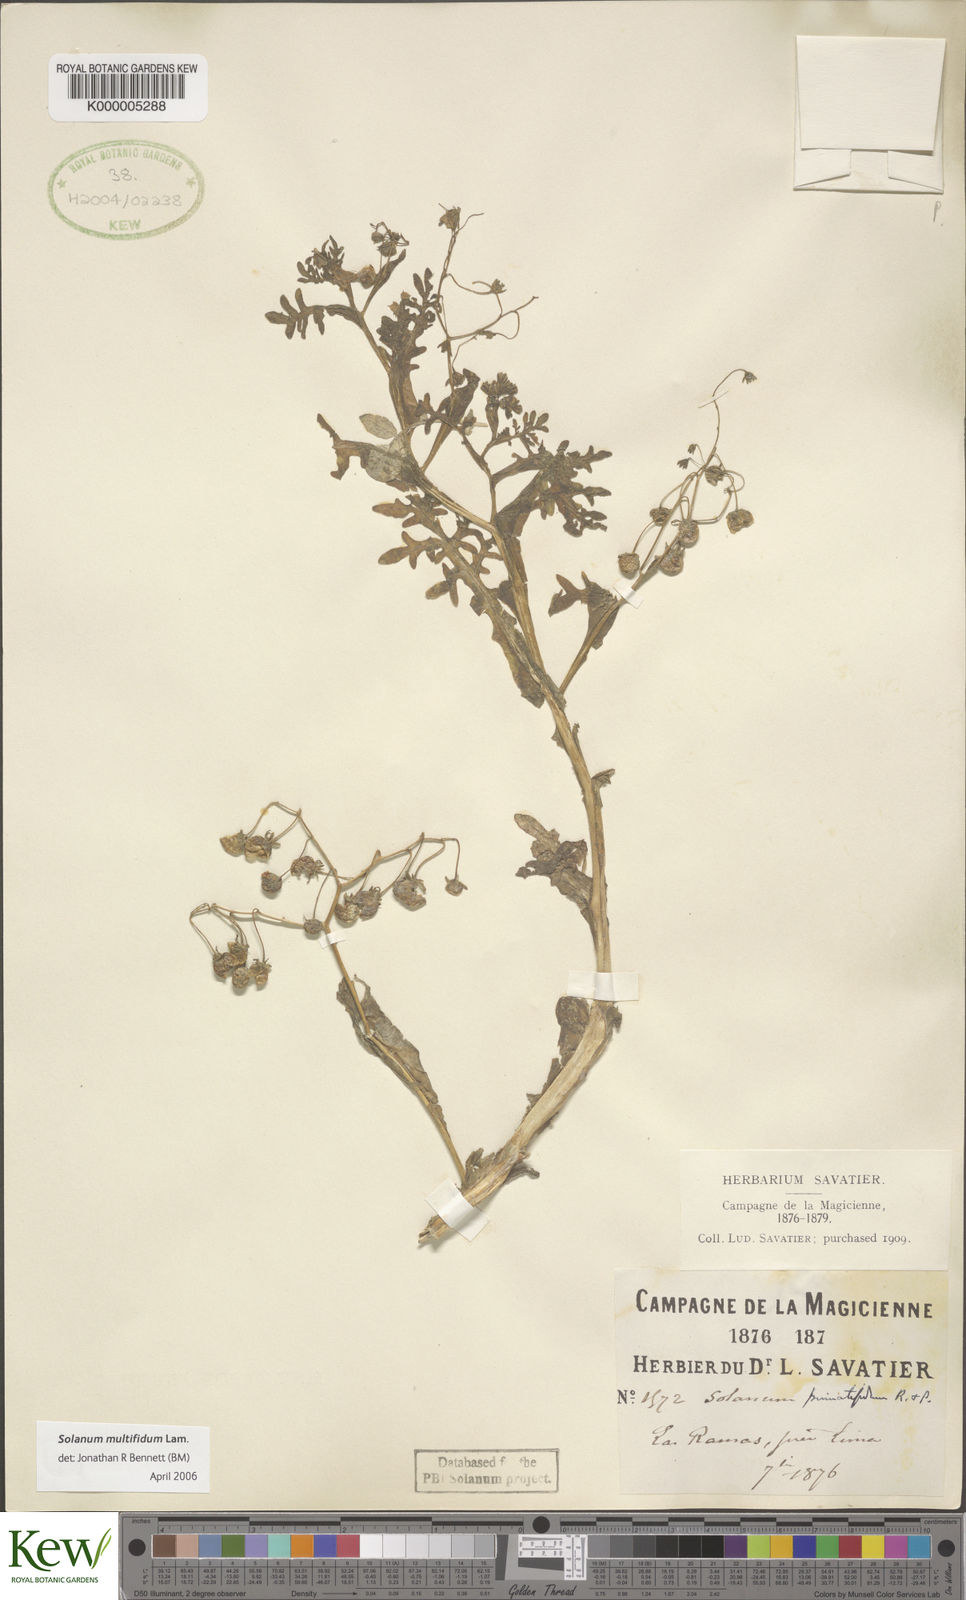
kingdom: Plantae
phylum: Tracheophyta
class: Magnoliopsida
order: Solanales
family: Solanaceae
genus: Solanum
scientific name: Solanum multifidum
